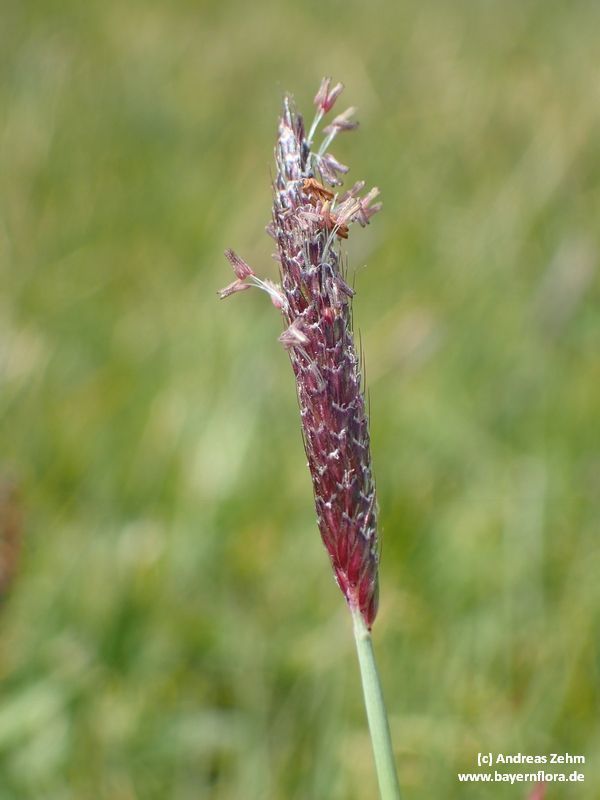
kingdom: Plantae
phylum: Tracheophyta
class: Liliopsida
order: Poales
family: Poaceae
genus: Alopecurus
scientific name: Alopecurus geniculatus
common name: Water foxtail
